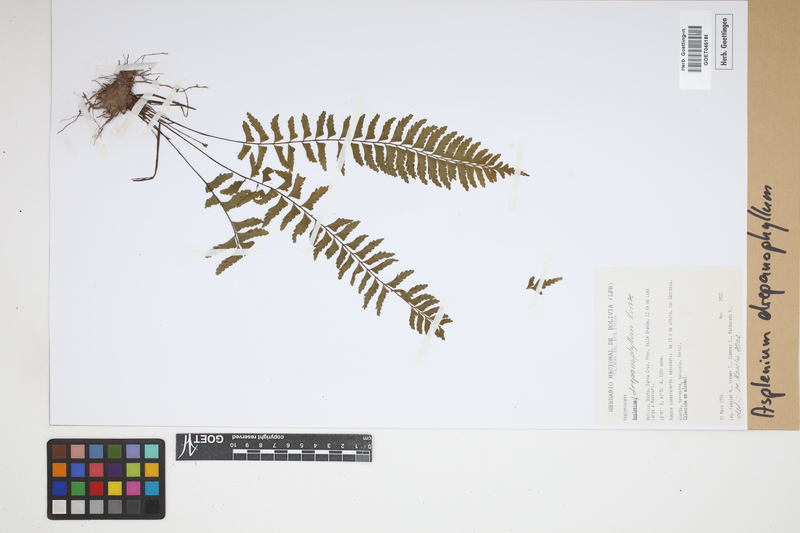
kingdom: Plantae
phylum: Tracheophyta
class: Polypodiopsida
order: Polypodiales
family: Aspleniaceae
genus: Asplenium
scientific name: Asplenium drepanophyllum
